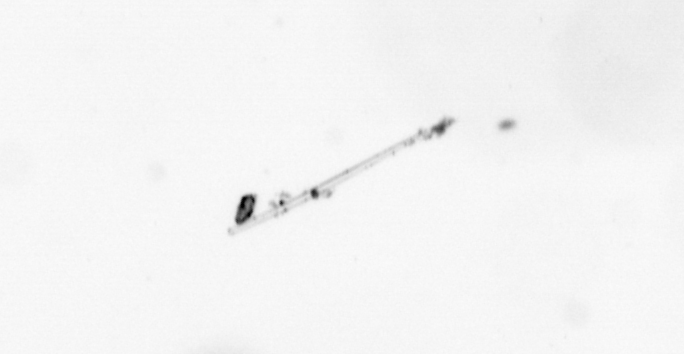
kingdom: Chromista
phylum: Ochrophyta
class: Bacillariophyceae
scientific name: Bacillariophyceae
